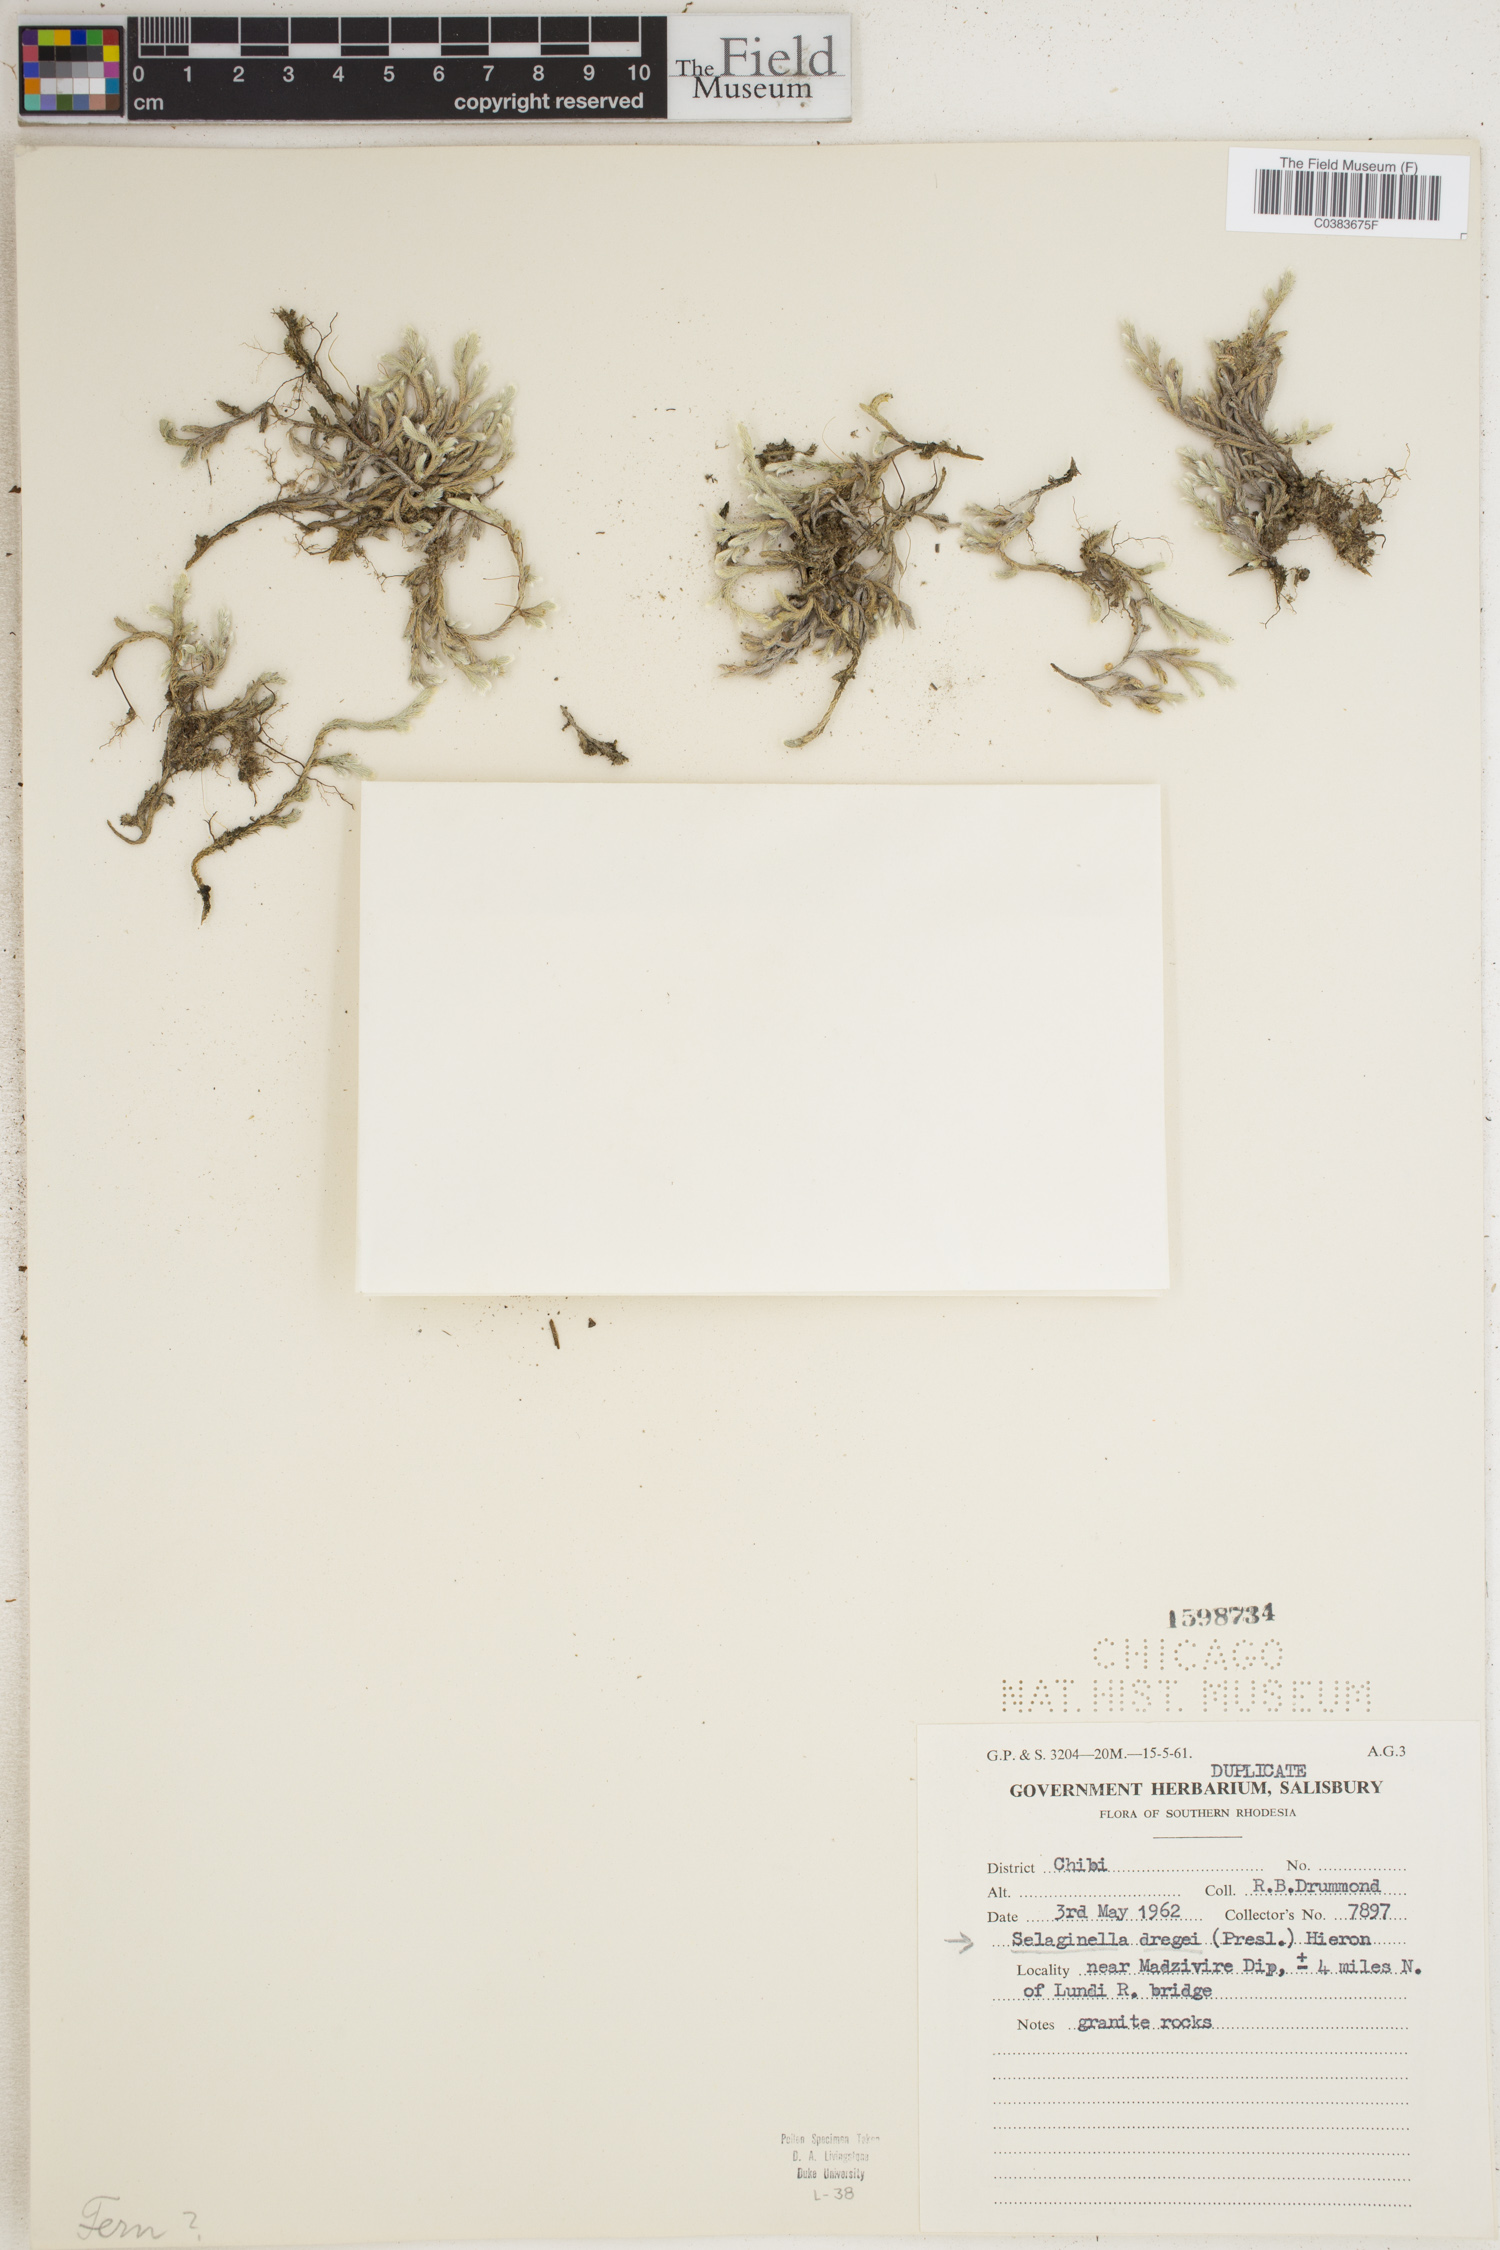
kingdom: Plantae
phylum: Tracheophyta
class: Lycopodiopsida
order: Selaginellales
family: Selaginellaceae
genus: Selaginella
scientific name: Selaginella dregei
